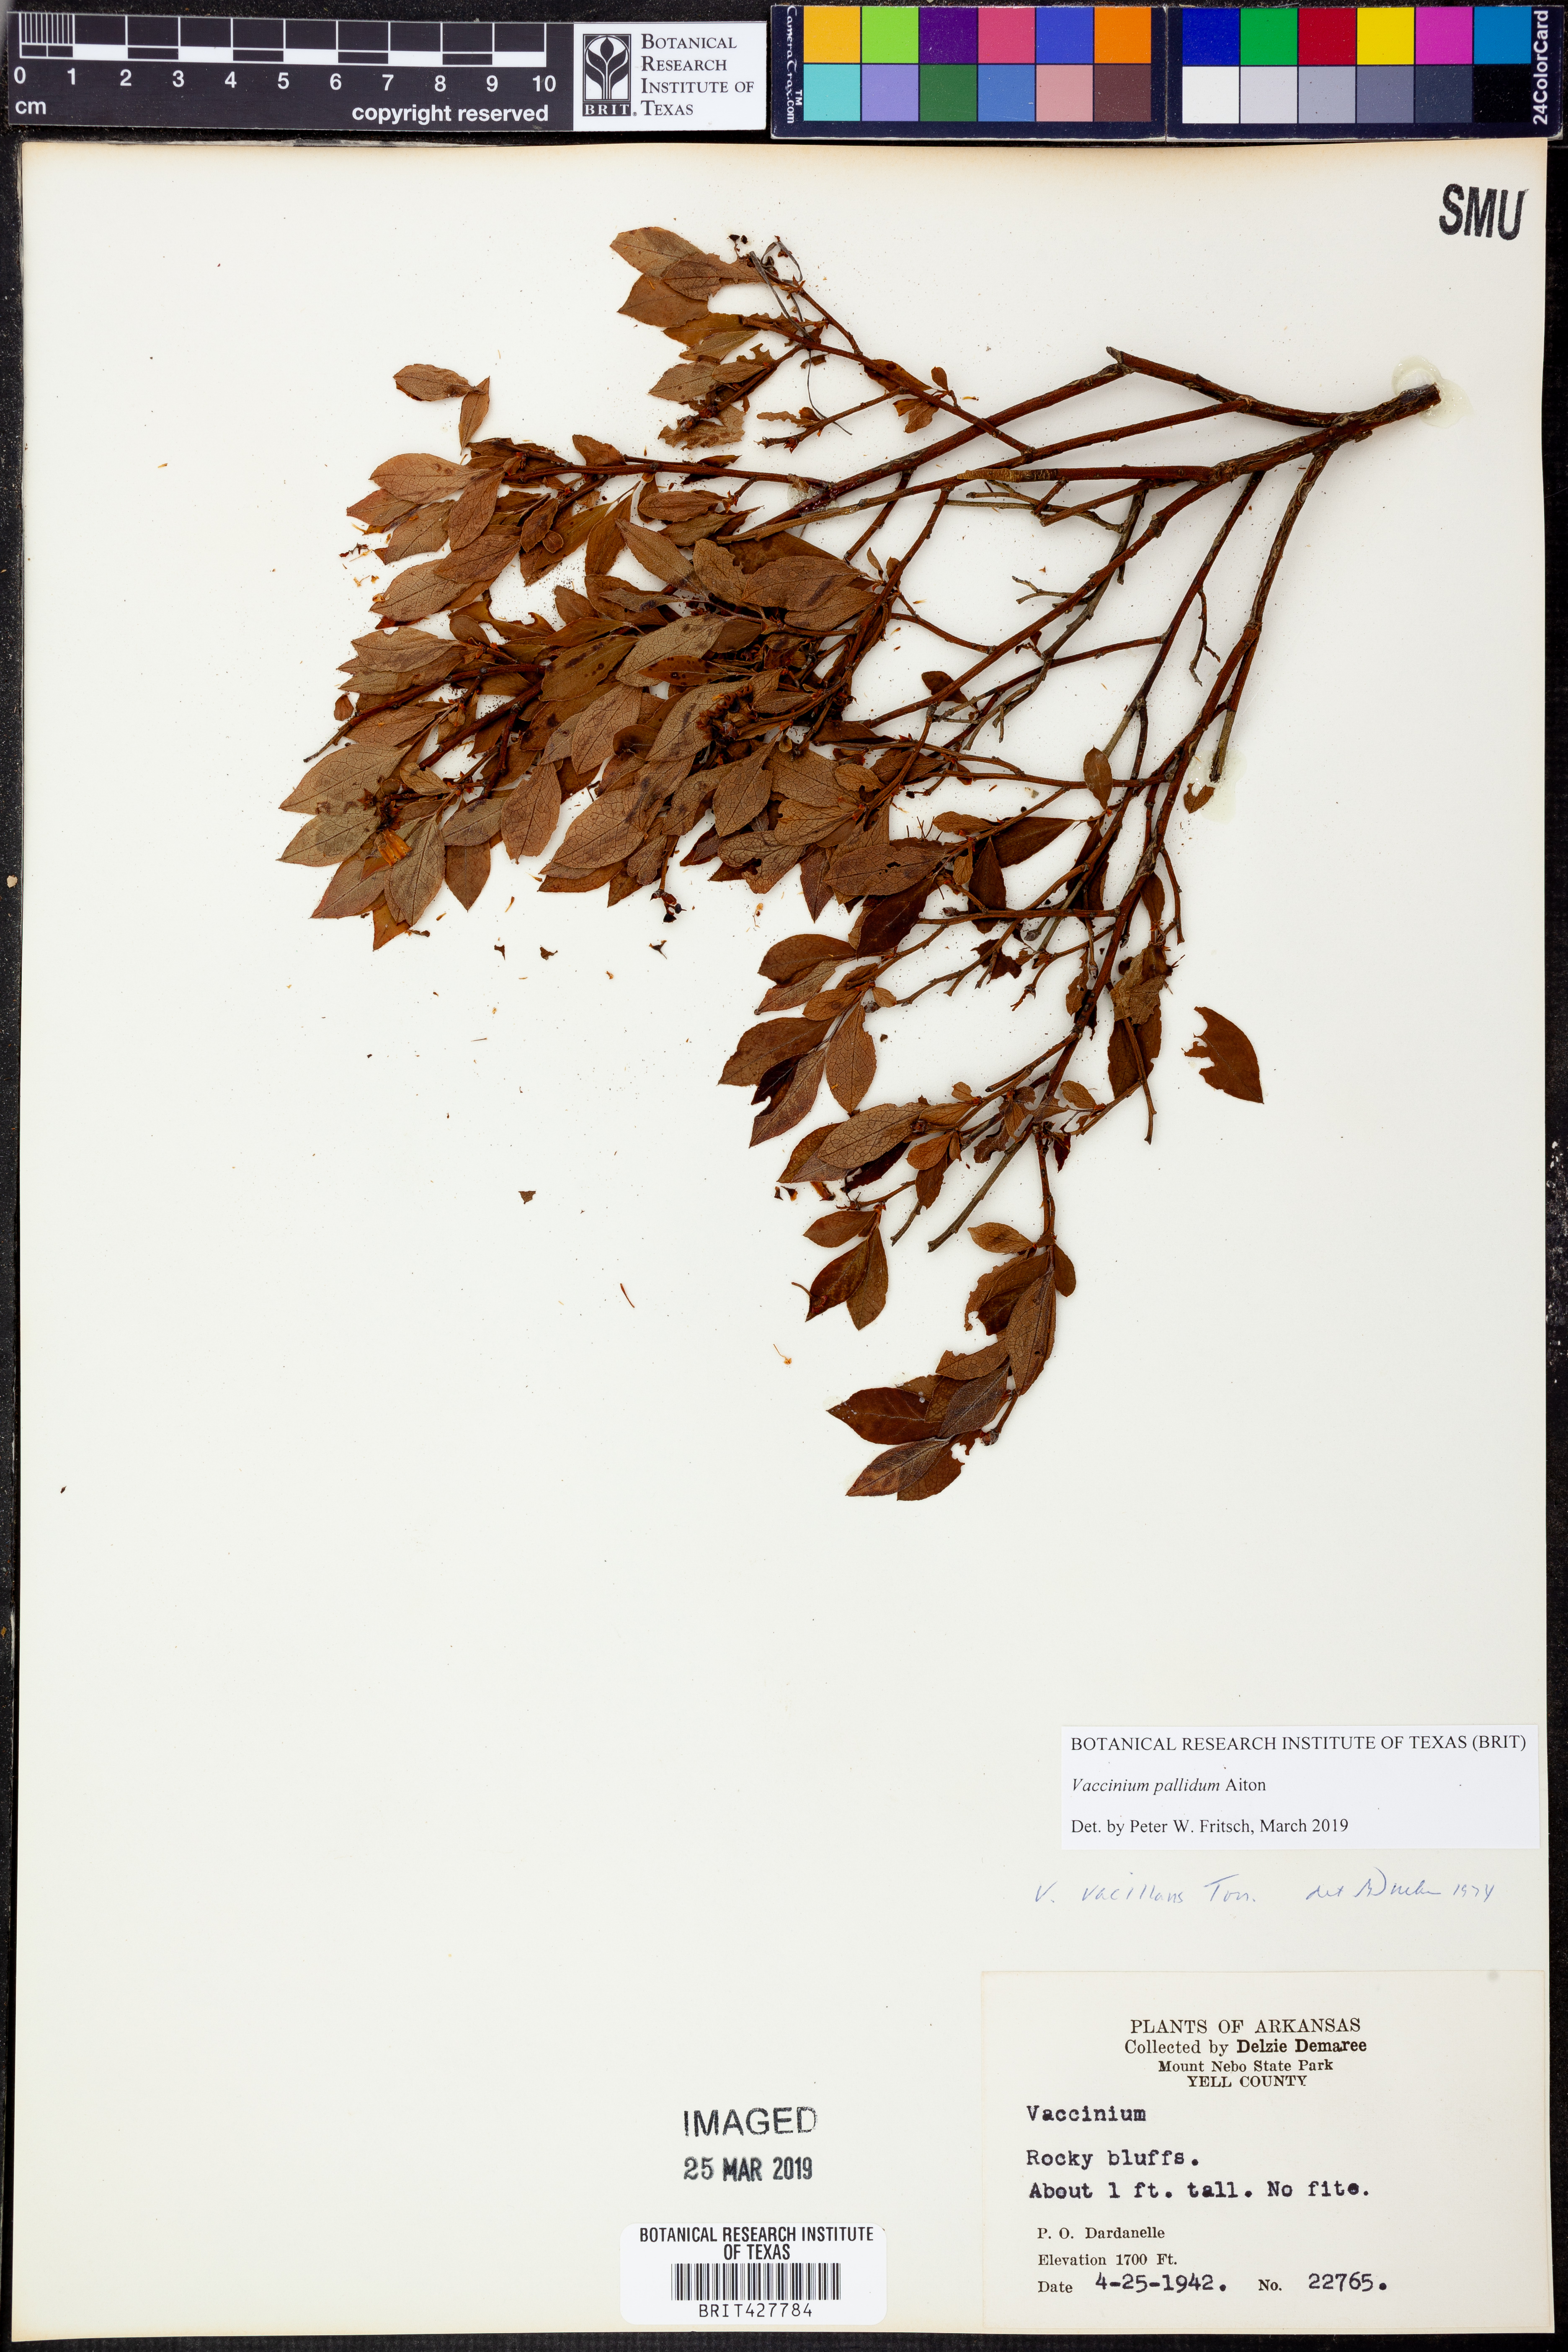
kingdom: Plantae
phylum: Tracheophyta
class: Magnoliopsida
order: Ericales
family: Ericaceae
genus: Vaccinium
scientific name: Vaccinium pallidum
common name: Blue ridge blueberry
